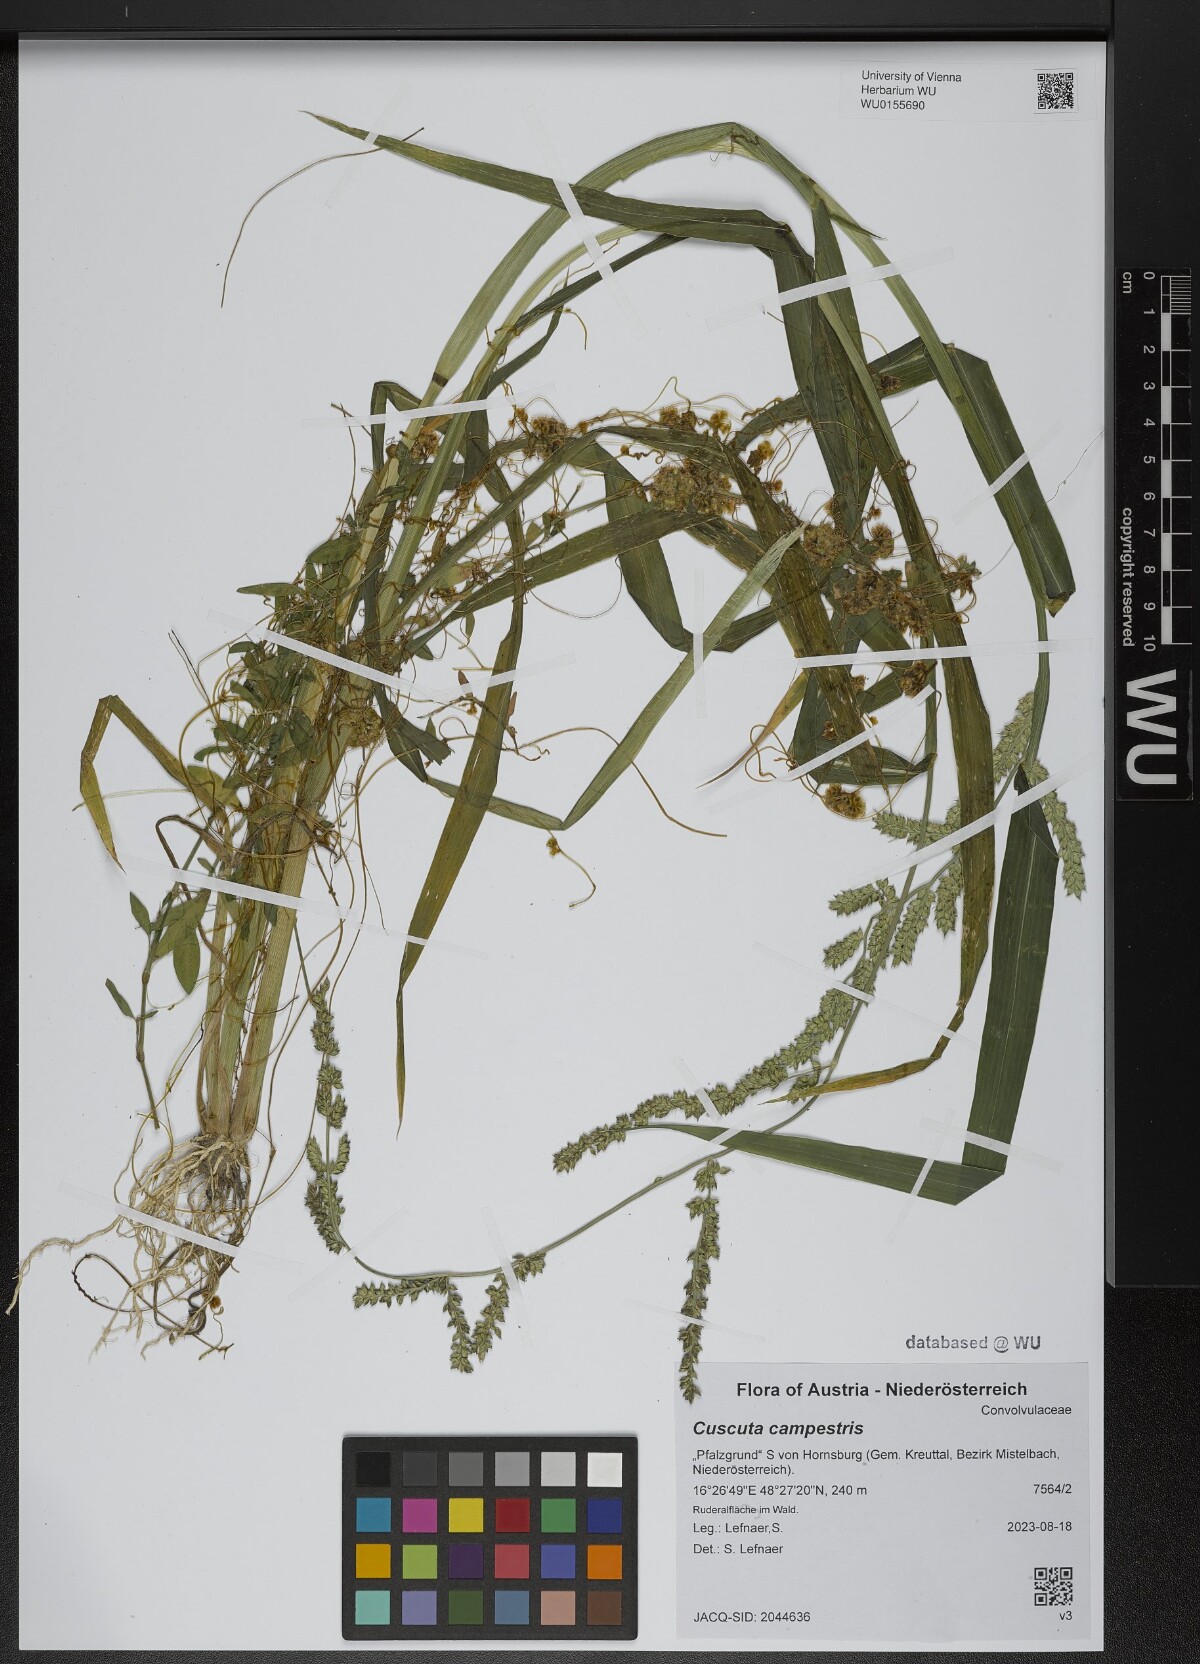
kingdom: Plantae
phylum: Tracheophyta
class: Magnoliopsida
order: Solanales
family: Convolvulaceae
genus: Cuscuta
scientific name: Cuscuta campestris
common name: Yellow dodder
